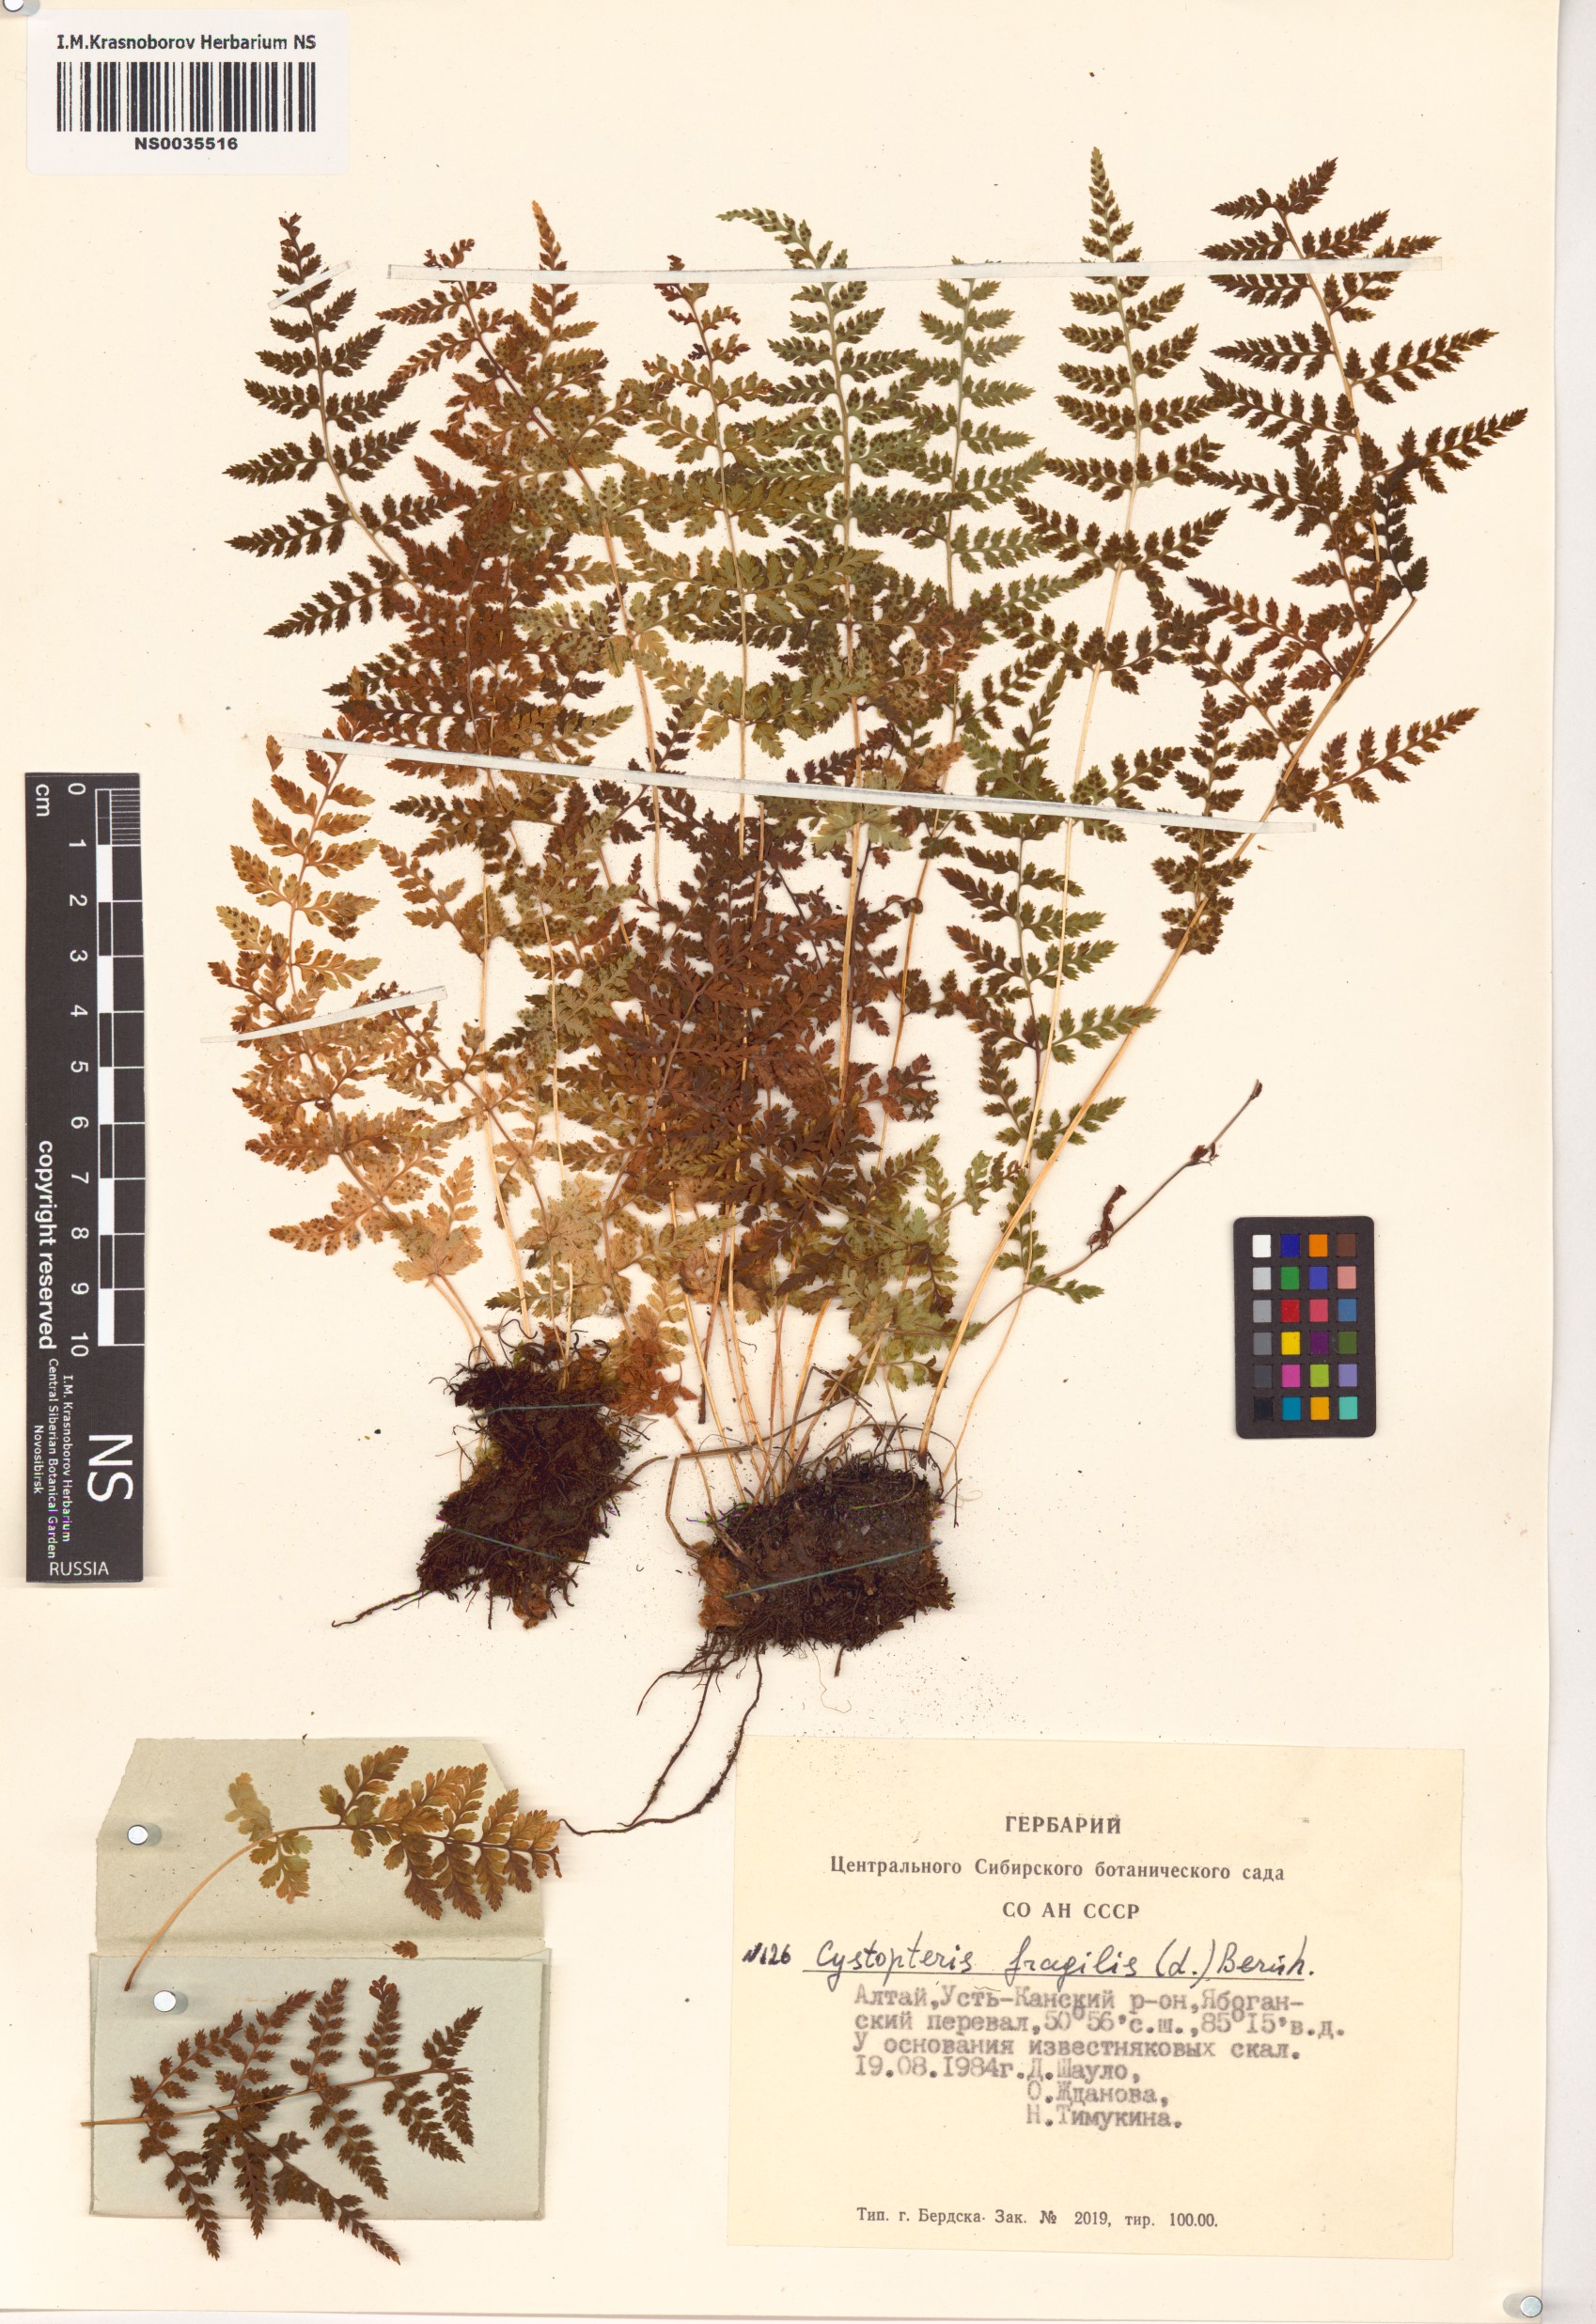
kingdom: Plantae
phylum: Tracheophyta
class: Polypodiopsida
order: Polypodiales
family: Cystopteridaceae
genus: Cystopteris
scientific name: Cystopteris fragilis
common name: Brittle bladder fern
